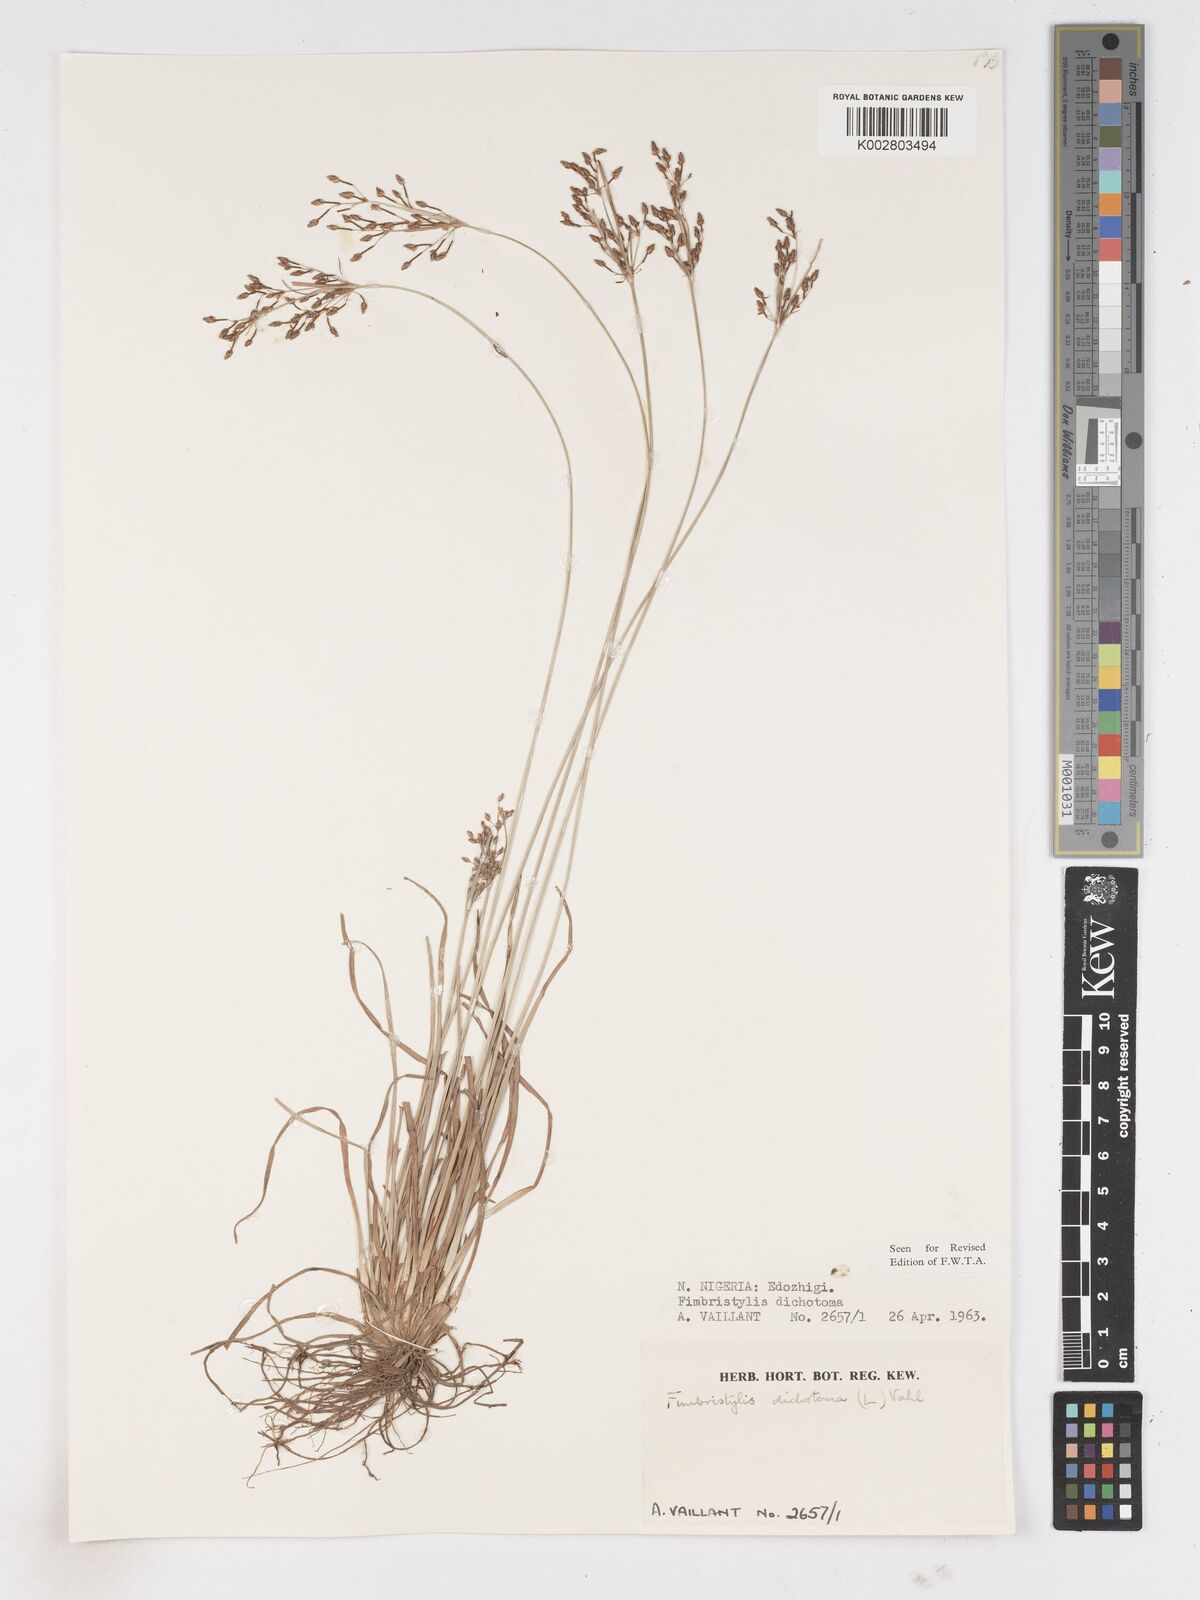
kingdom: Plantae
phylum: Tracheophyta
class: Liliopsida
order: Poales
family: Cyperaceae
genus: Fimbristylis
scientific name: Fimbristylis dichotoma
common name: Forked fimbry
